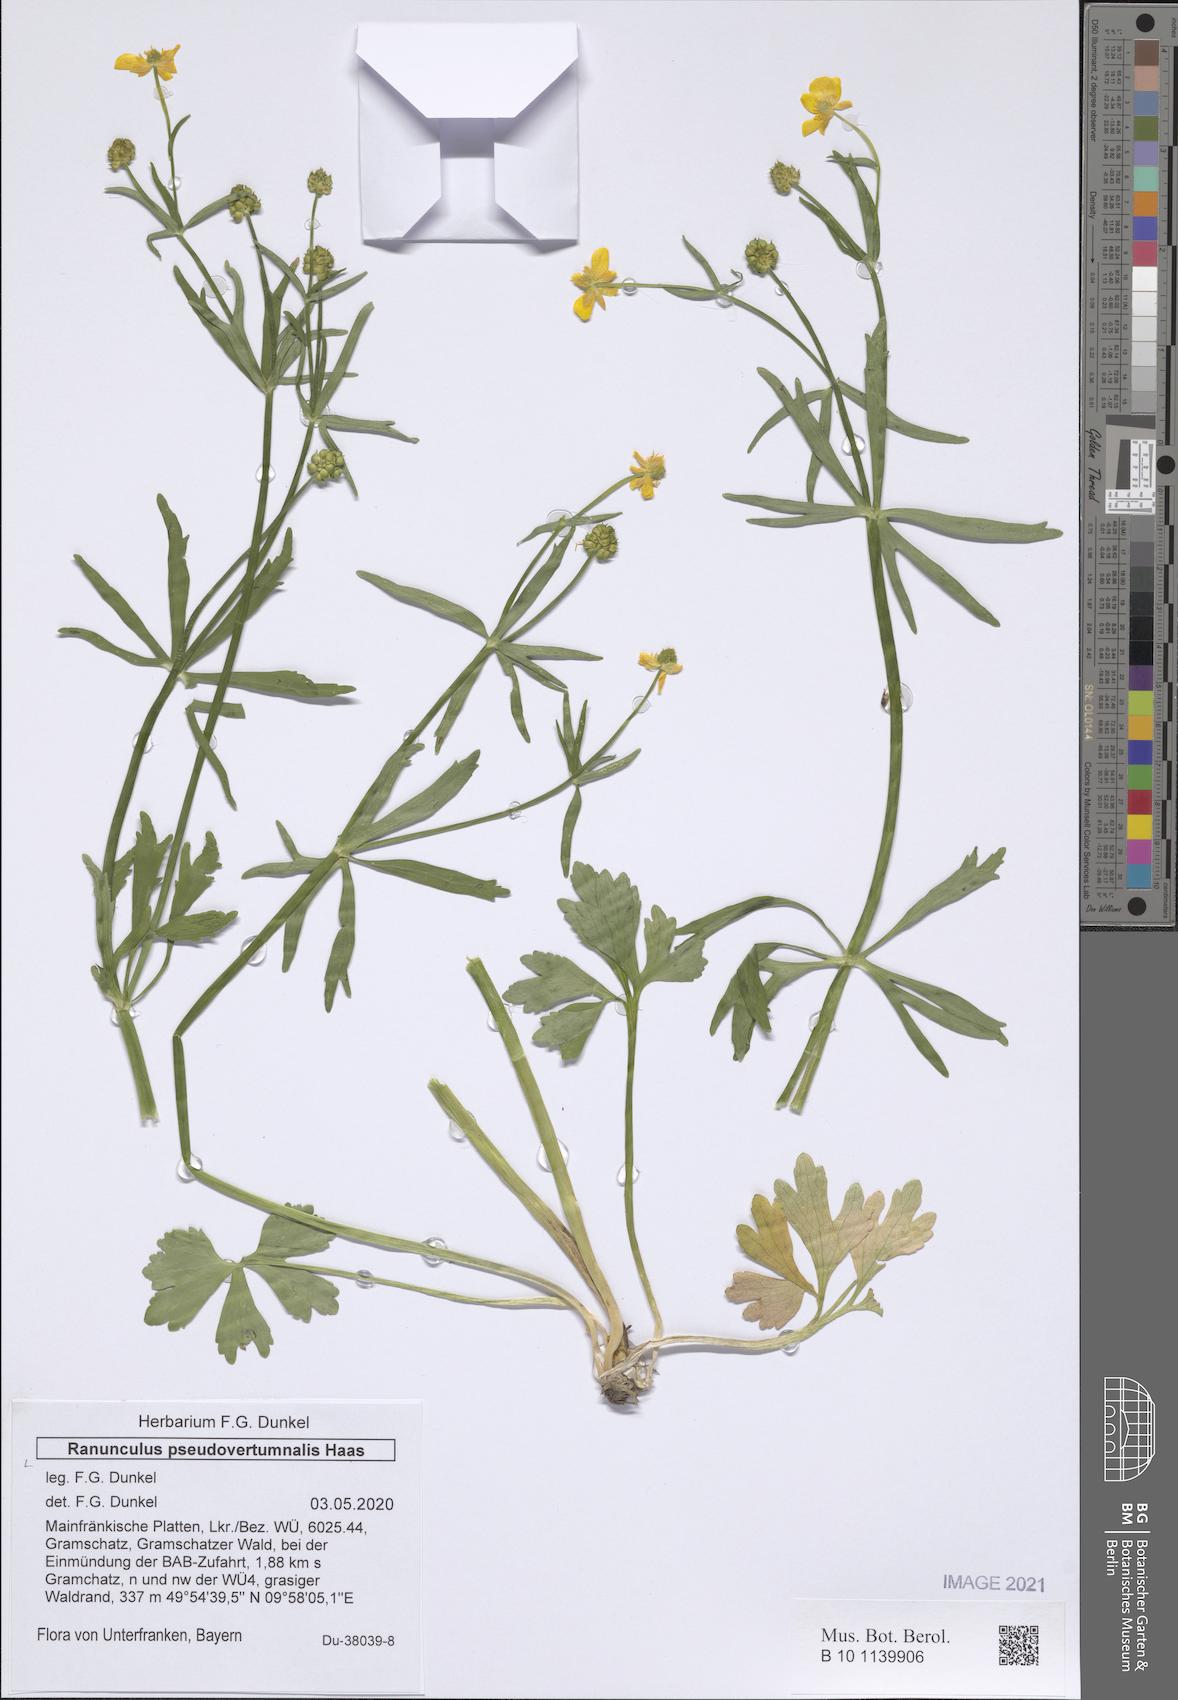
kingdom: Plantae
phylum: Tracheophyta
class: Magnoliopsida
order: Ranunculales
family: Ranunculaceae
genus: Ranunculus
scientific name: Ranunculus pseudovertumnalis
